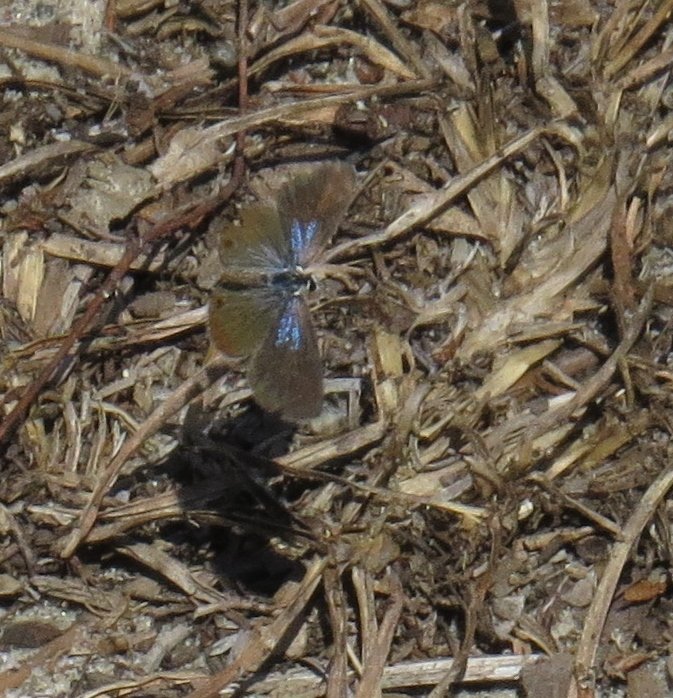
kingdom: Animalia
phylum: Arthropoda
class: Insecta
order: Lepidoptera
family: Lycaenidae
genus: Hemiargus
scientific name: Hemiargus ceraunus
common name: Ceraunus Blue
